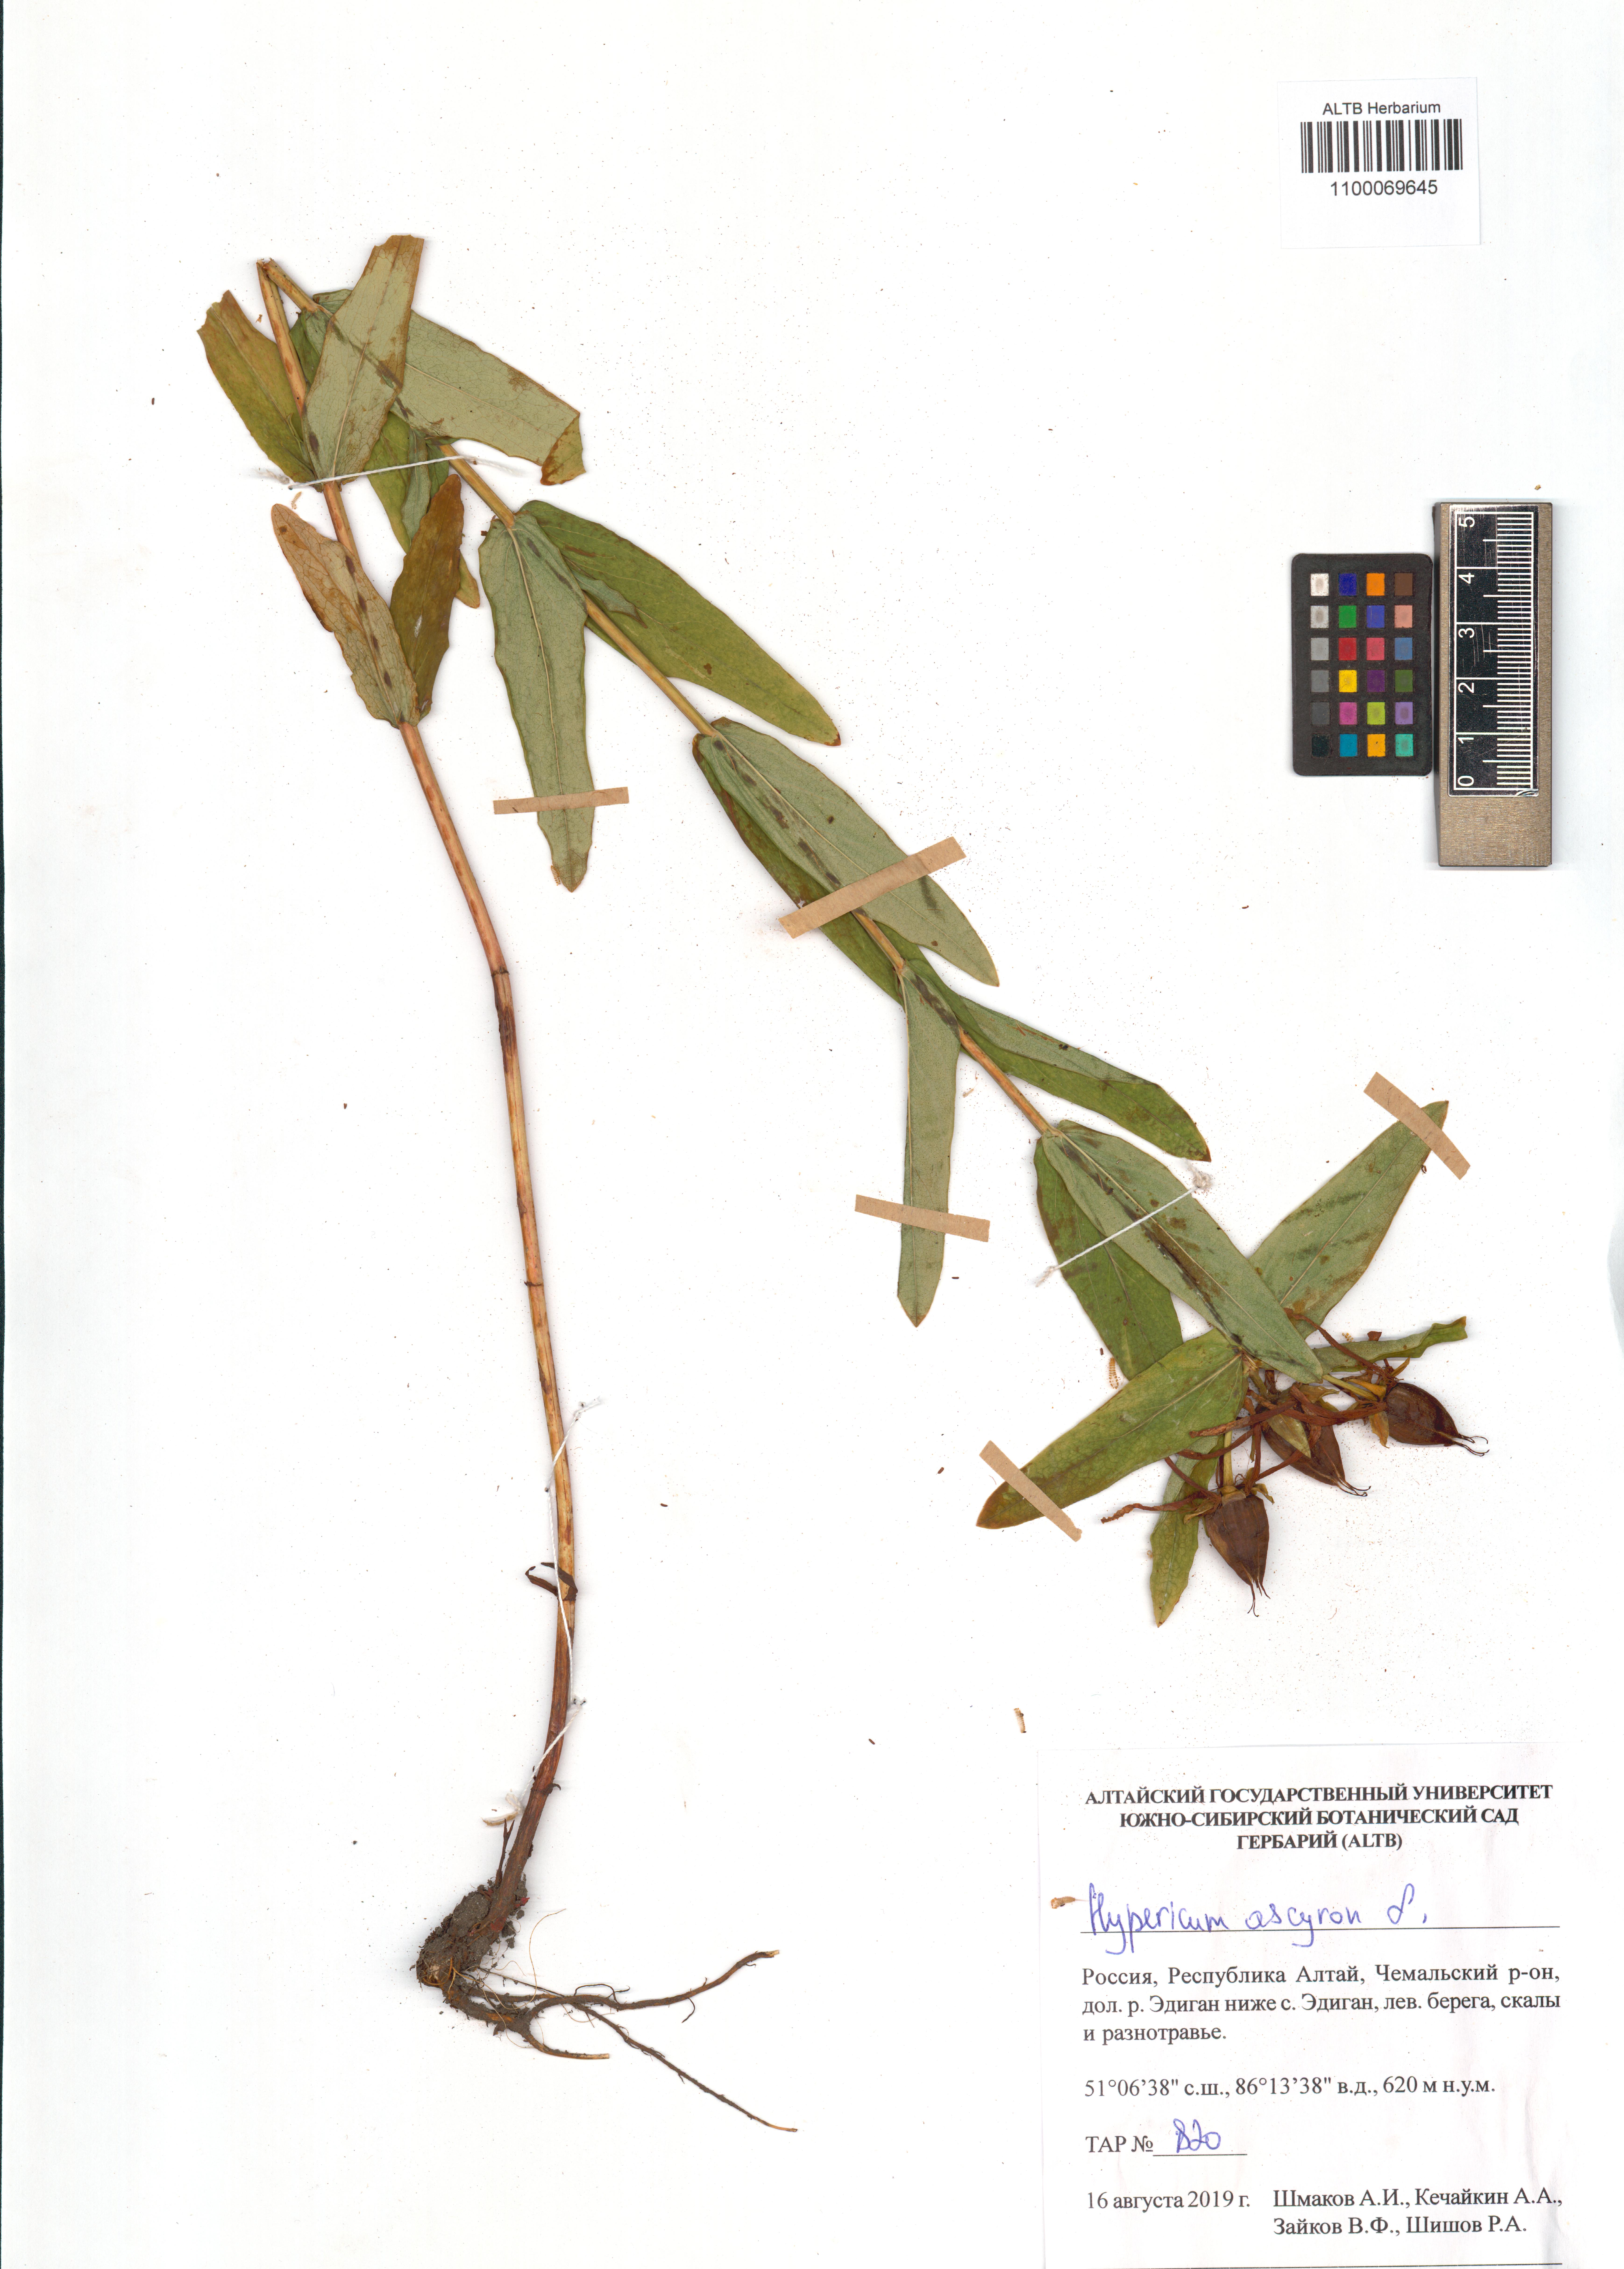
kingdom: Plantae
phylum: Tracheophyta
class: Magnoliopsida
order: Malpighiales
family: Hypericaceae
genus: Hypericum
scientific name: Hypericum ascyron
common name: Giant st. john's-wort
